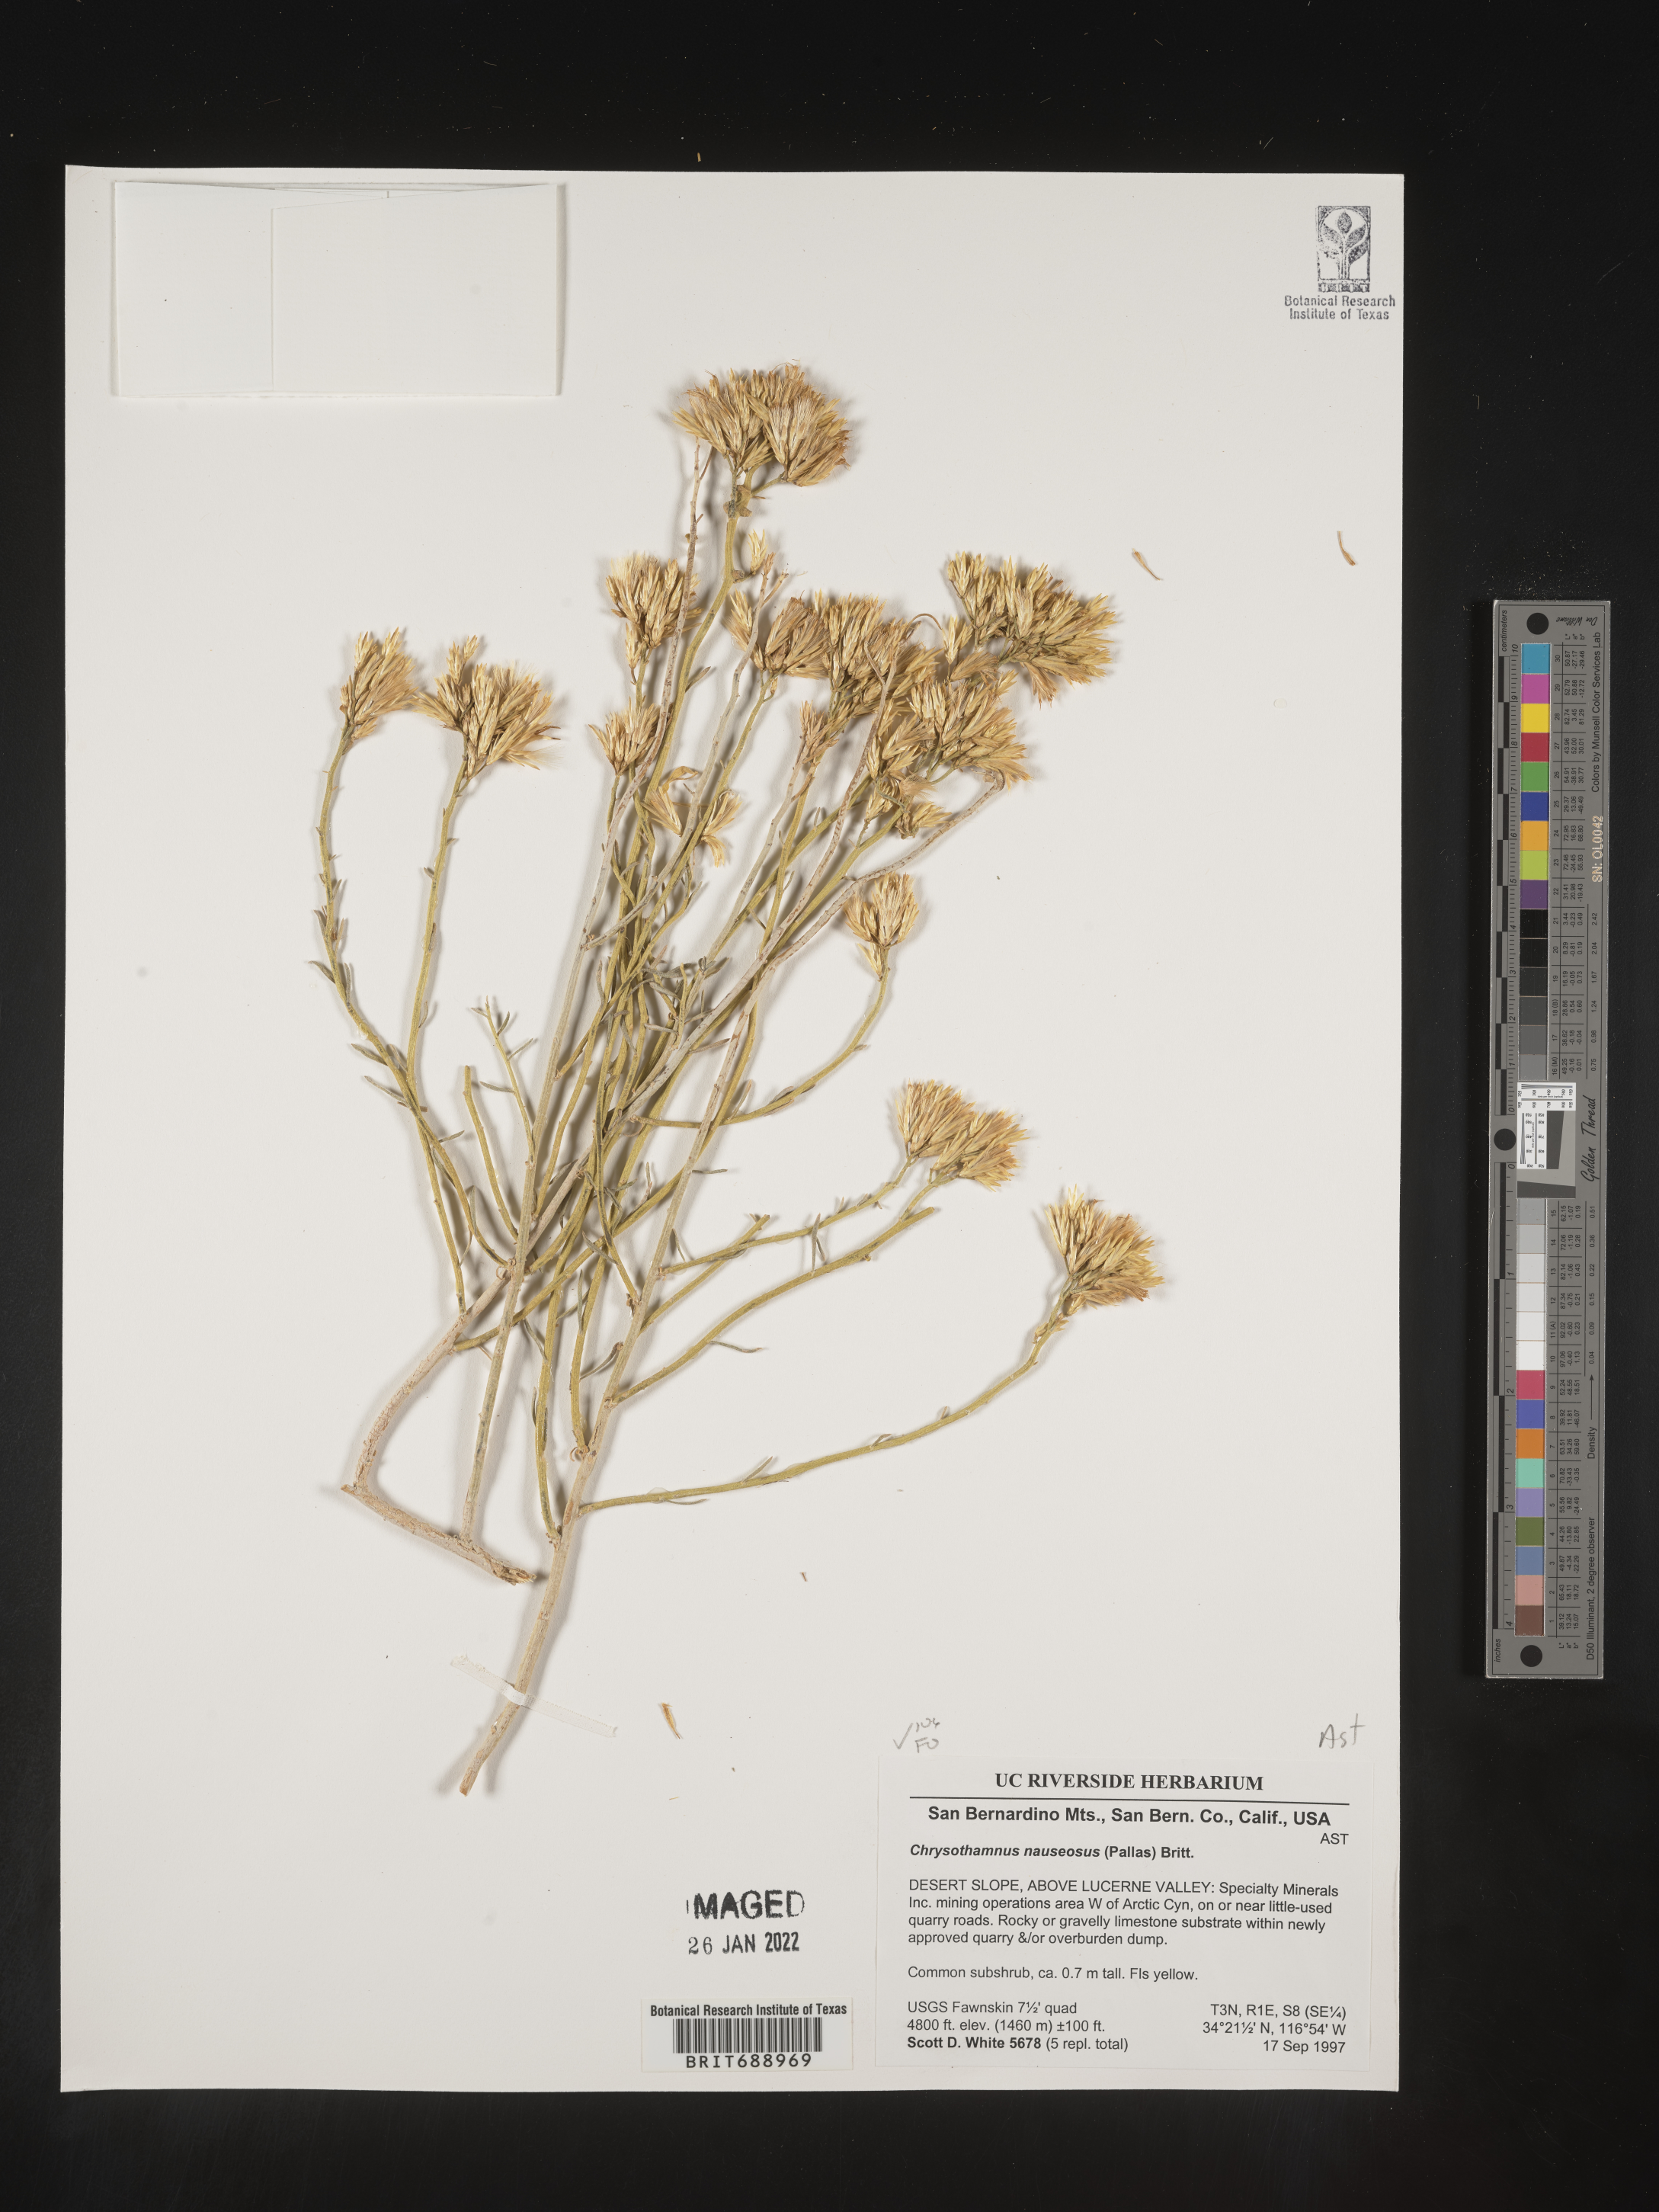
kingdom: Plantae
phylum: Tracheophyta
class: Magnoliopsida
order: Asterales
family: Asteraceae
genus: Ericameria
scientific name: Ericameria nauseosa
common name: Rubber rabbitbrush
